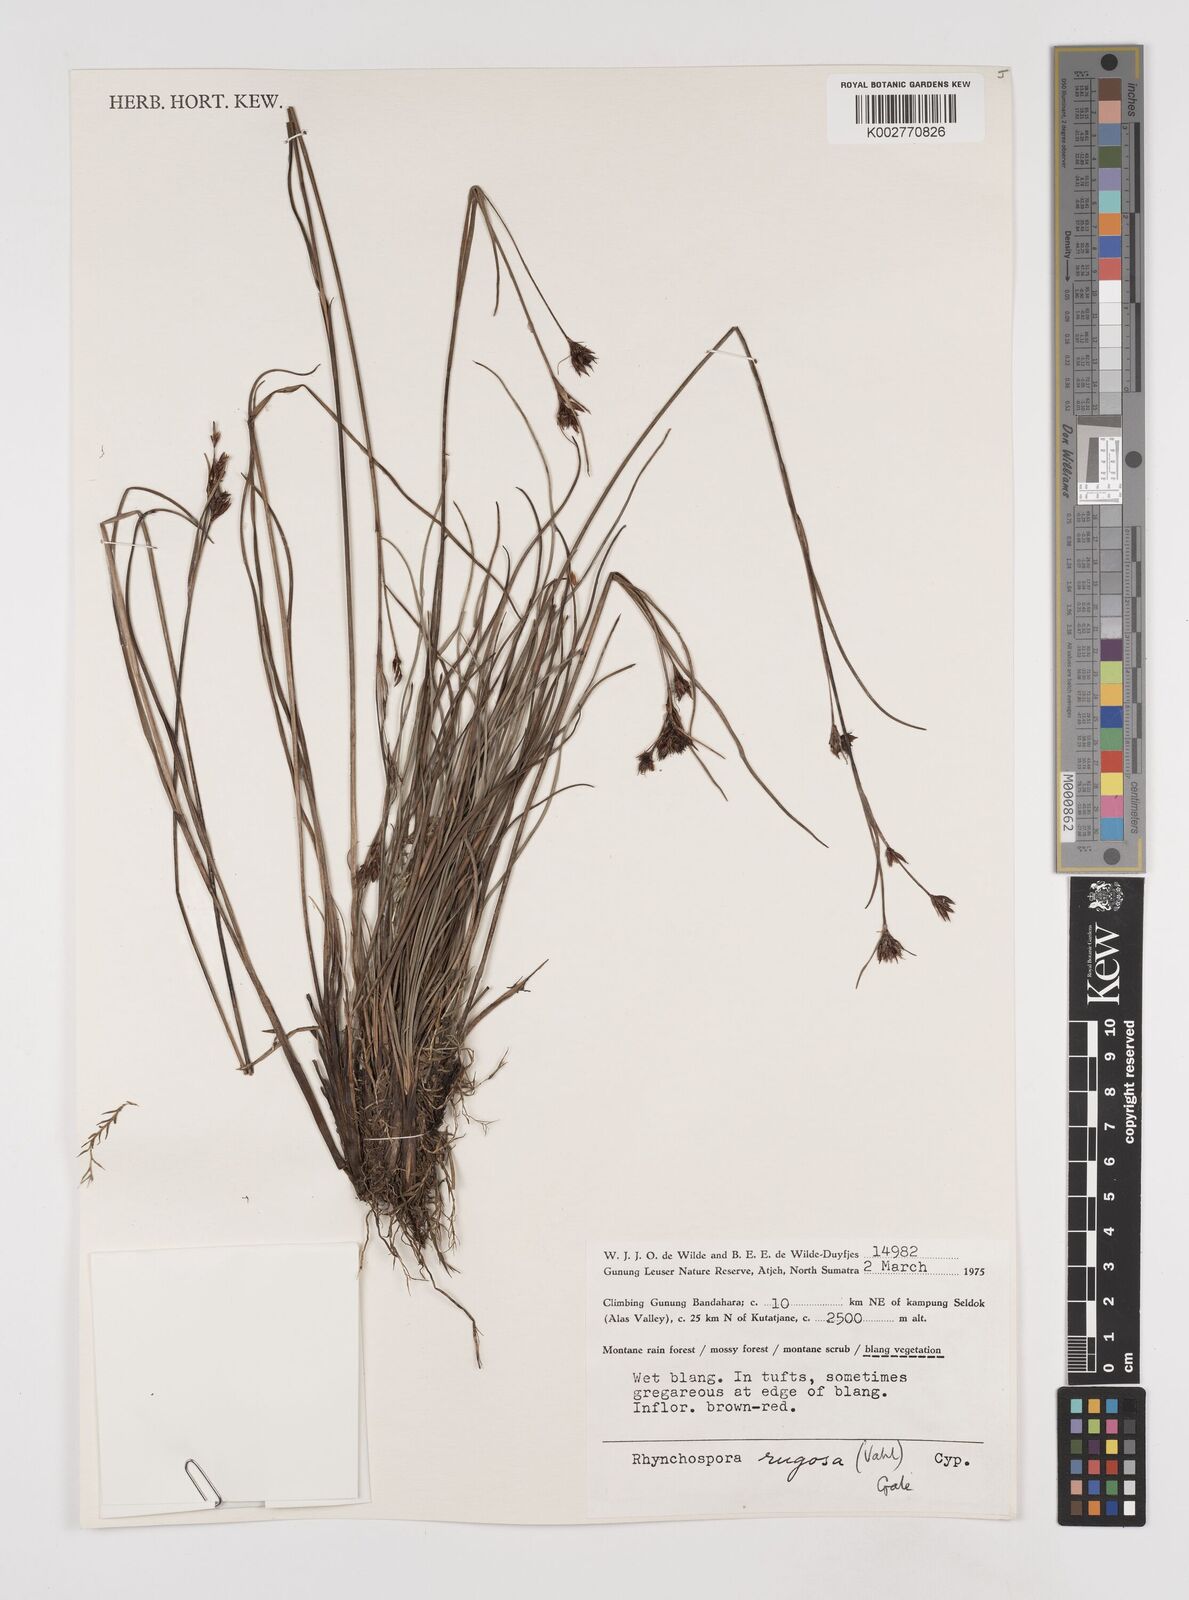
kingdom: Plantae
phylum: Tracheophyta
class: Liliopsida
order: Poales
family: Cyperaceae
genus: Rhynchospora
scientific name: Rhynchospora rugosa
